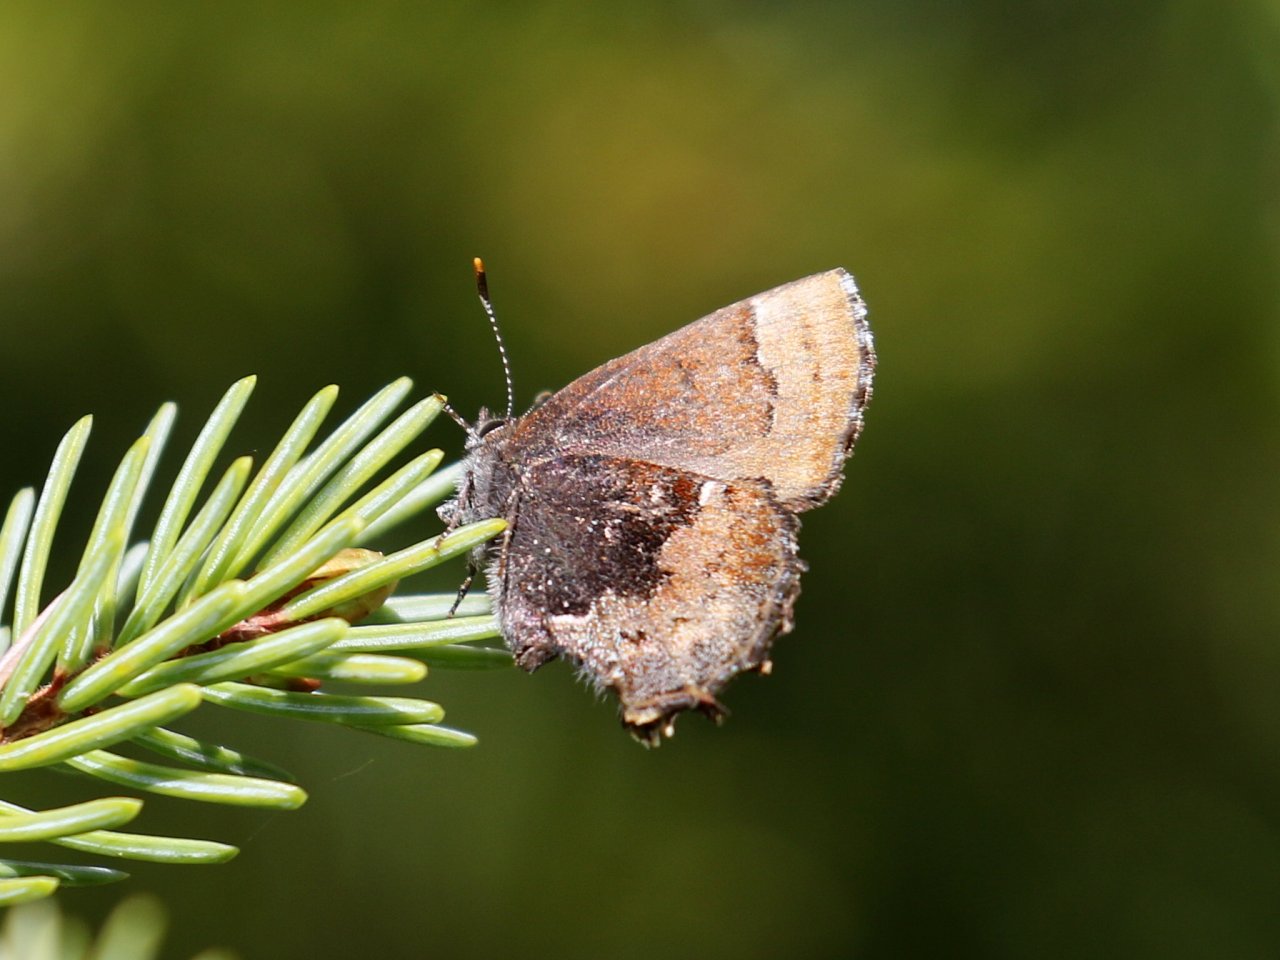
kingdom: Animalia
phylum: Arthropoda
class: Insecta
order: Lepidoptera
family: Lycaenidae
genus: Incisalia
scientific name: Incisalia henrici
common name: Henry's Elfin
